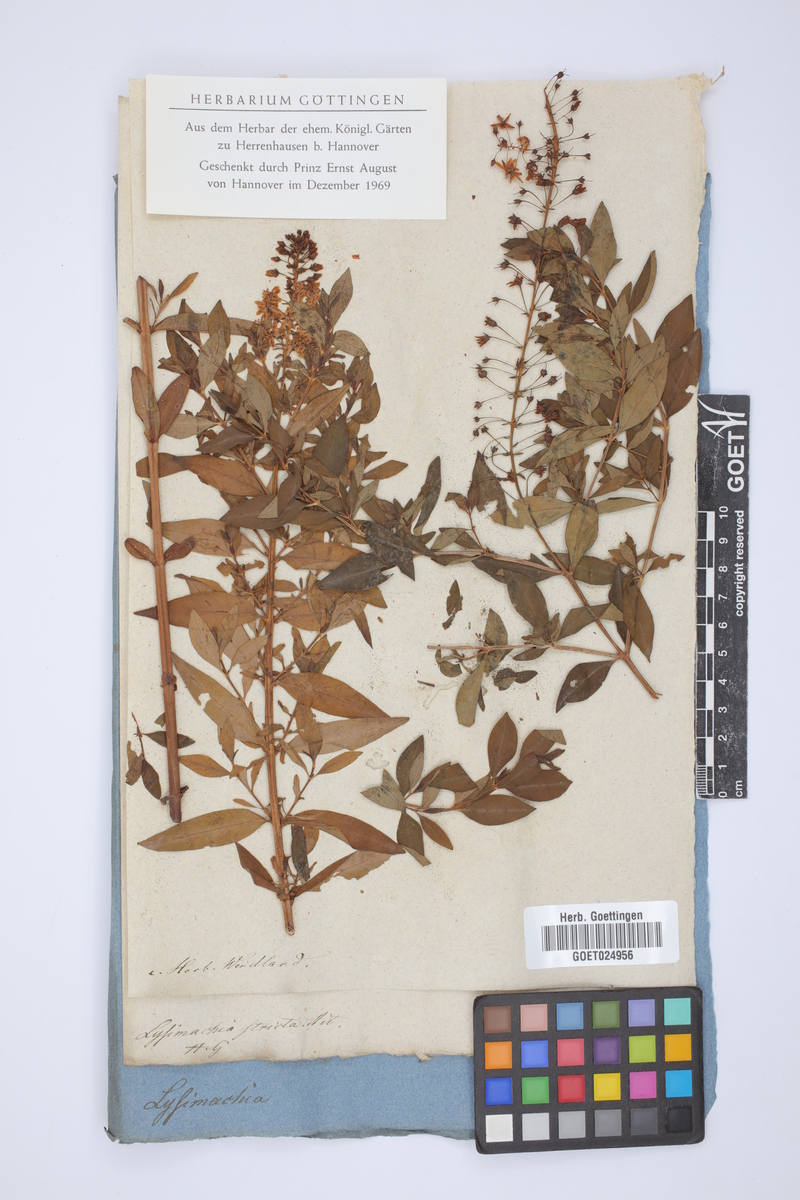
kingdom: Plantae
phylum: Tracheophyta
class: Magnoliopsida
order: Ericales
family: Primulaceae
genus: Lysimachia
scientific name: Lysimachia terrestris
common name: Lake loosestrife
